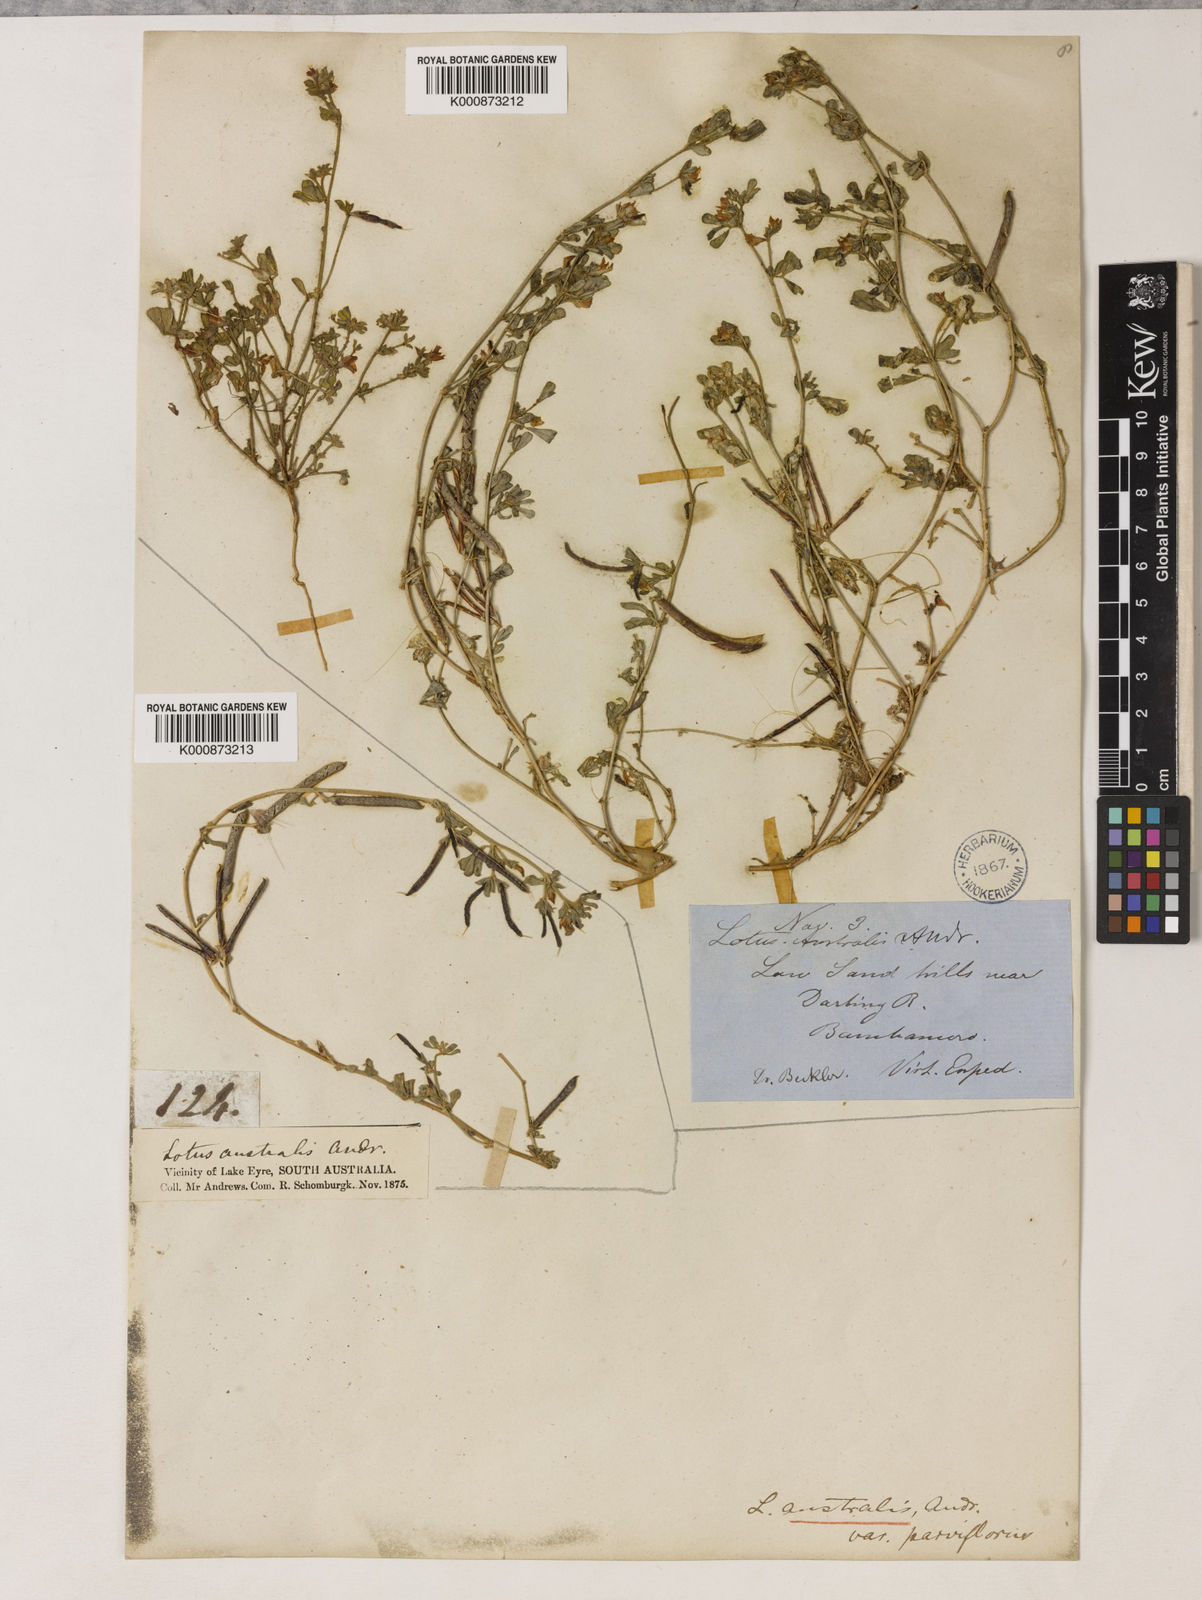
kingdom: Plantae
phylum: Tracheophyta
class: Magnoliopsida
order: Fabales
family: Fabaceae
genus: Lotus
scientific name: Lotus cruentus
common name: Red bird's-foot trefoil
